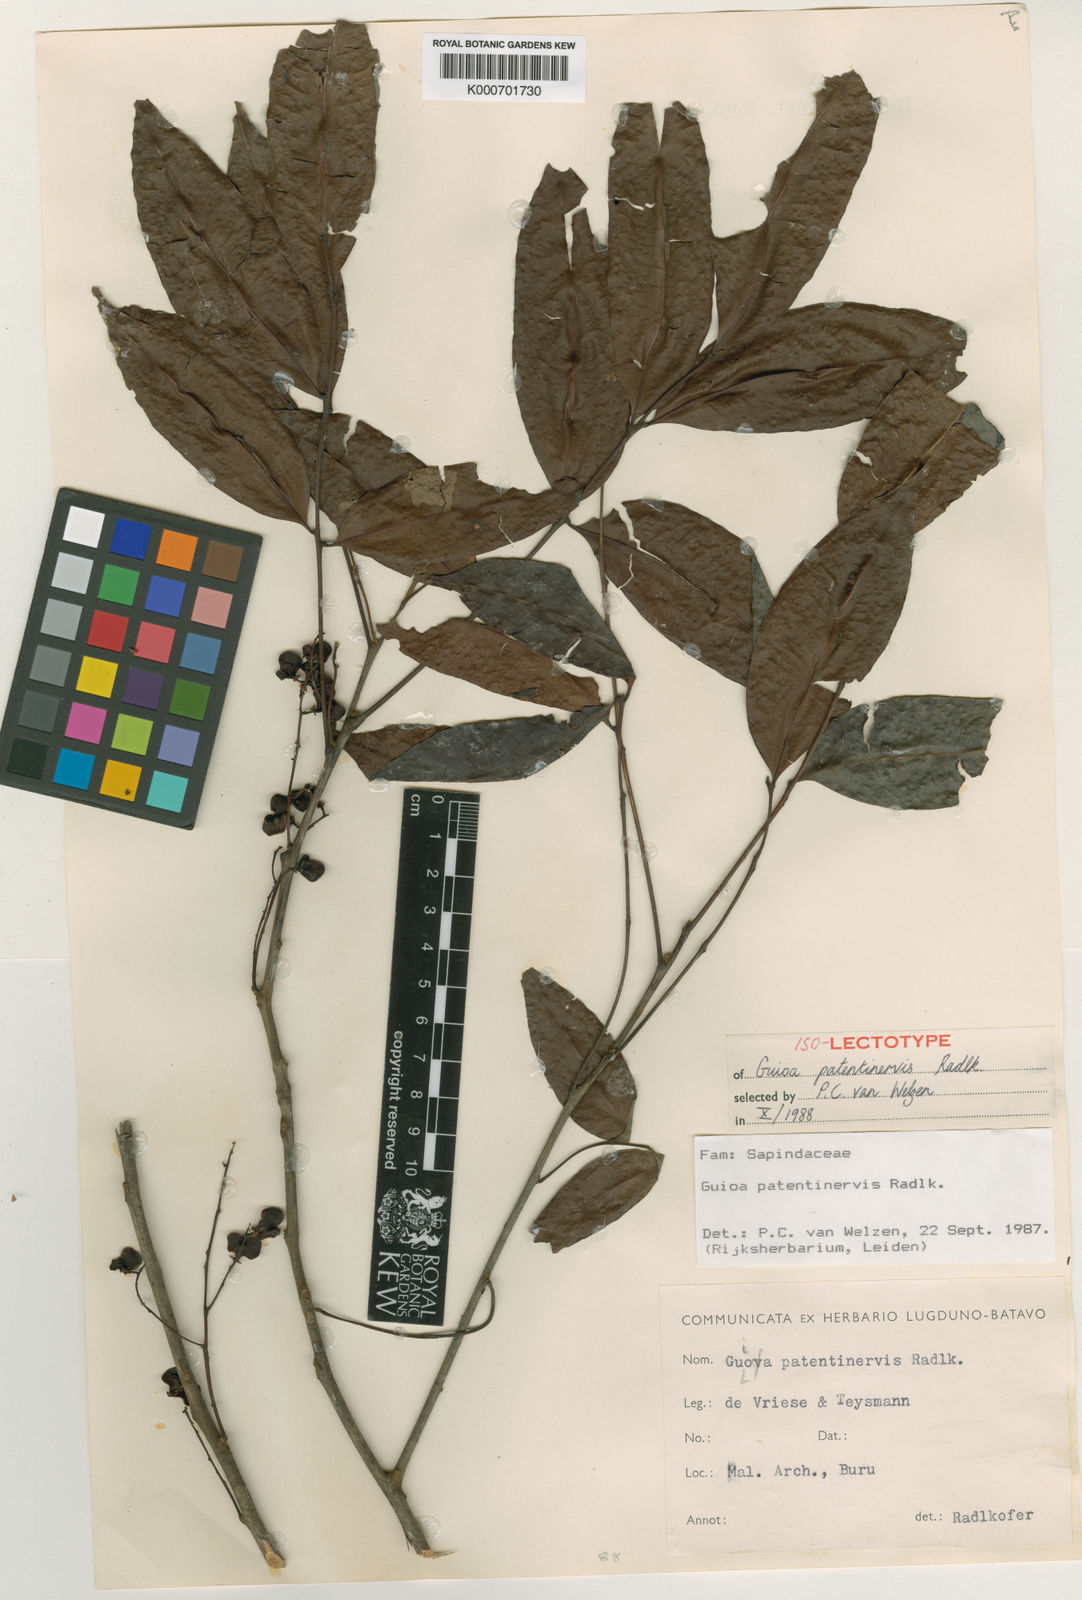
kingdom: Plantae
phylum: Tracheophyta
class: Magnoliopsida
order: Sapindales
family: Sapindaceae
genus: Guioa
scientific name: Guioa patentinervis
